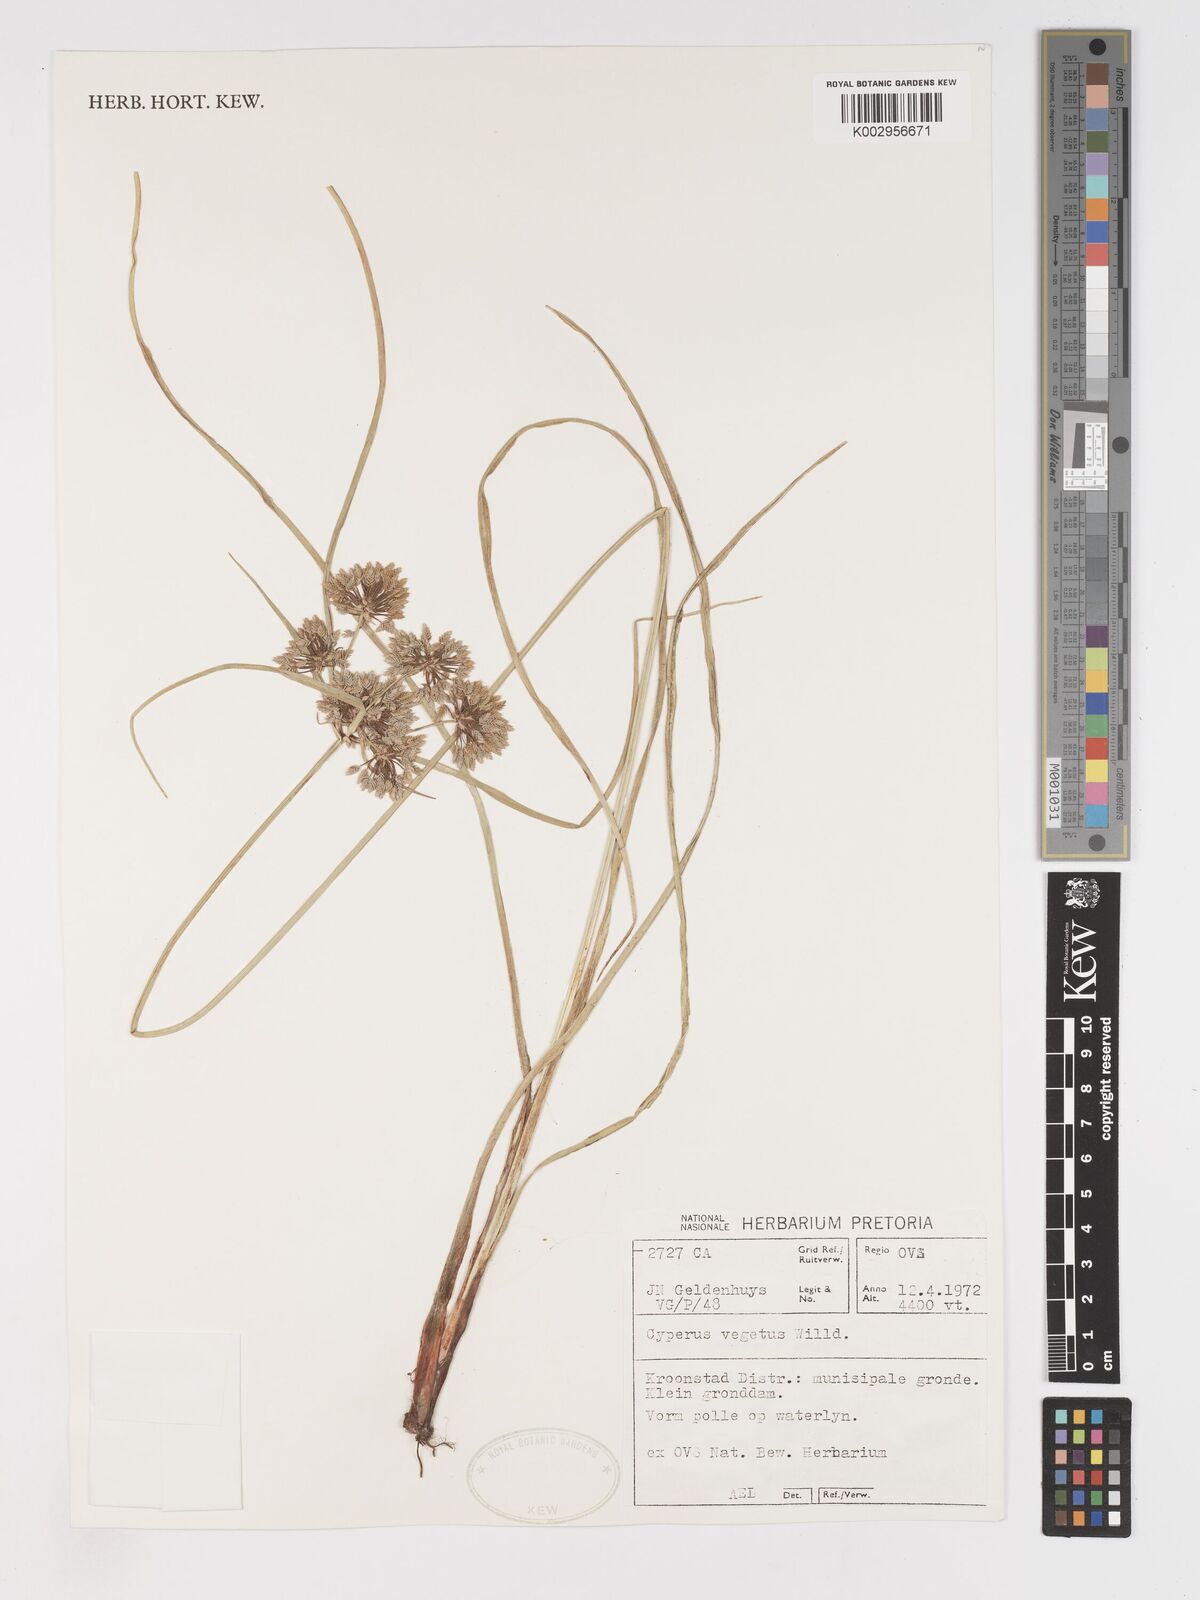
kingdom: Plantae
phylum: Tracheophyta
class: Liliopsida
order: Poales
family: Cyperaceae
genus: Cyperus
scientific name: Cyperus eragrostis
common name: Tall flatsedge
